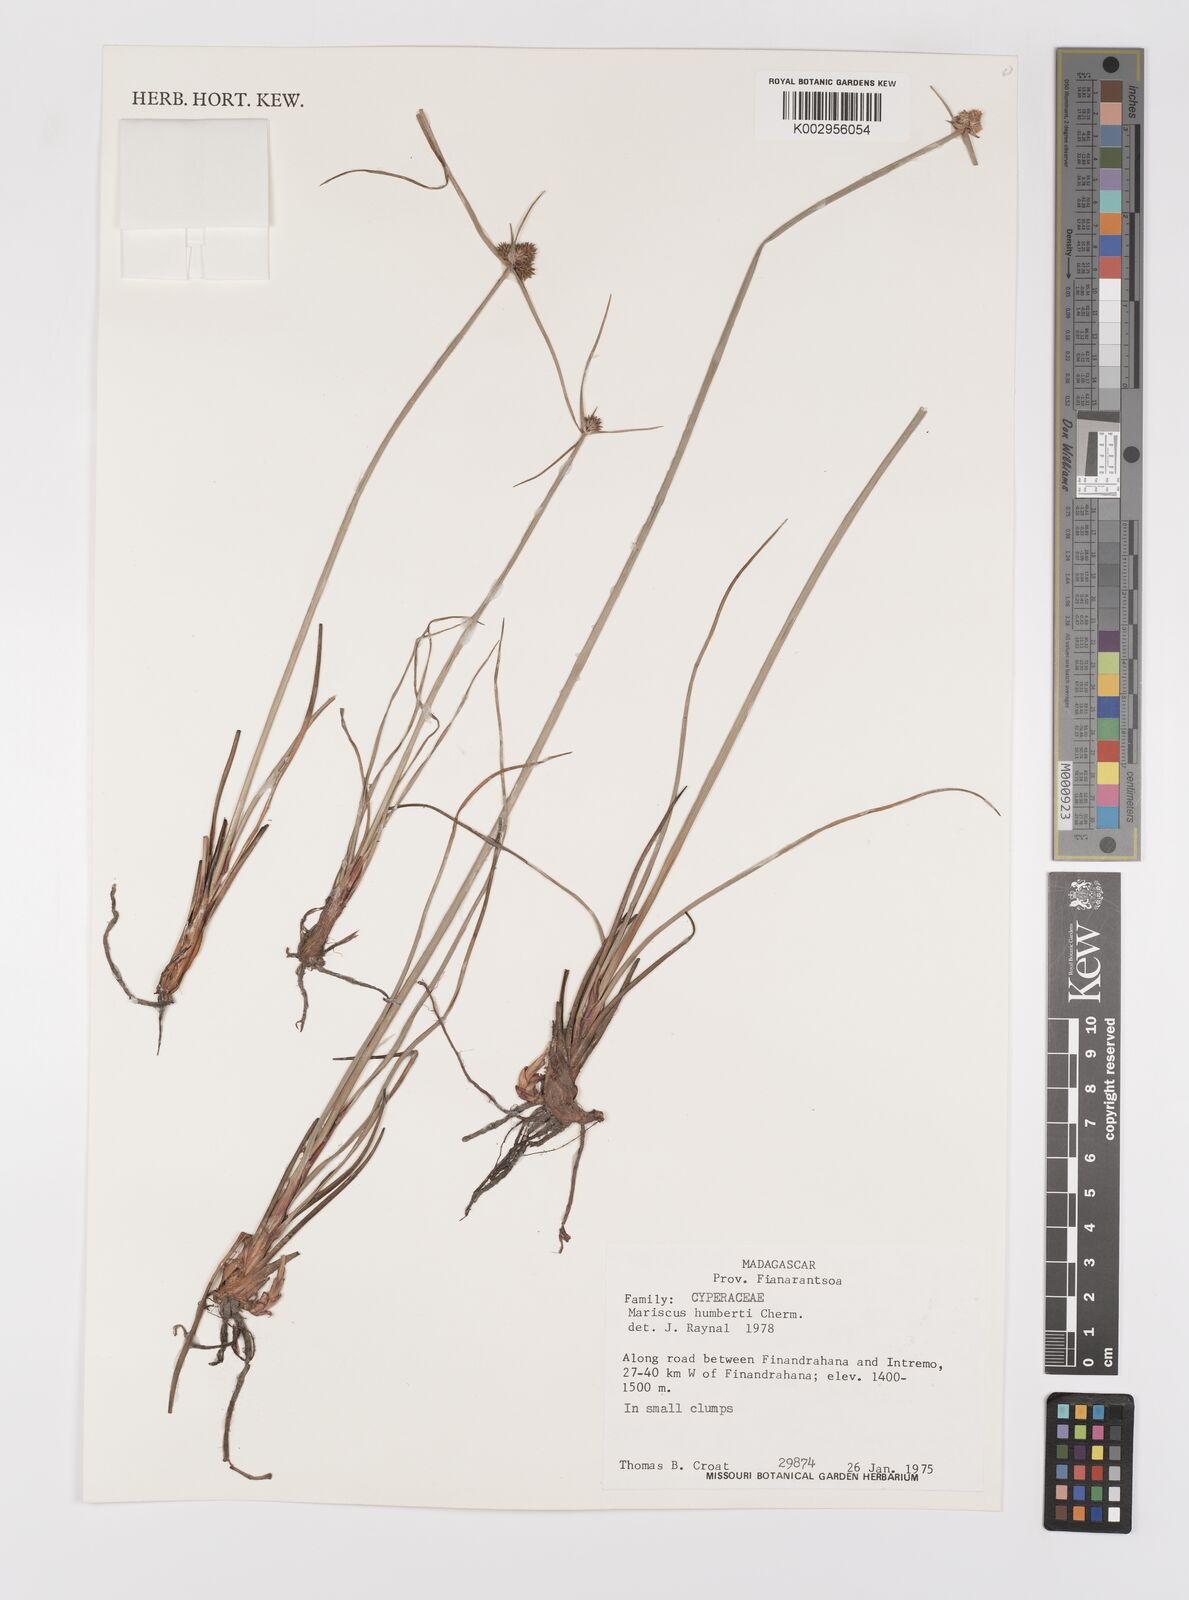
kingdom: Plantae
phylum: Tracheophyta
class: Liliopsida
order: Poales
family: Cyperaceae
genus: Cyperus
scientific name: Cyperus macrocarpus
